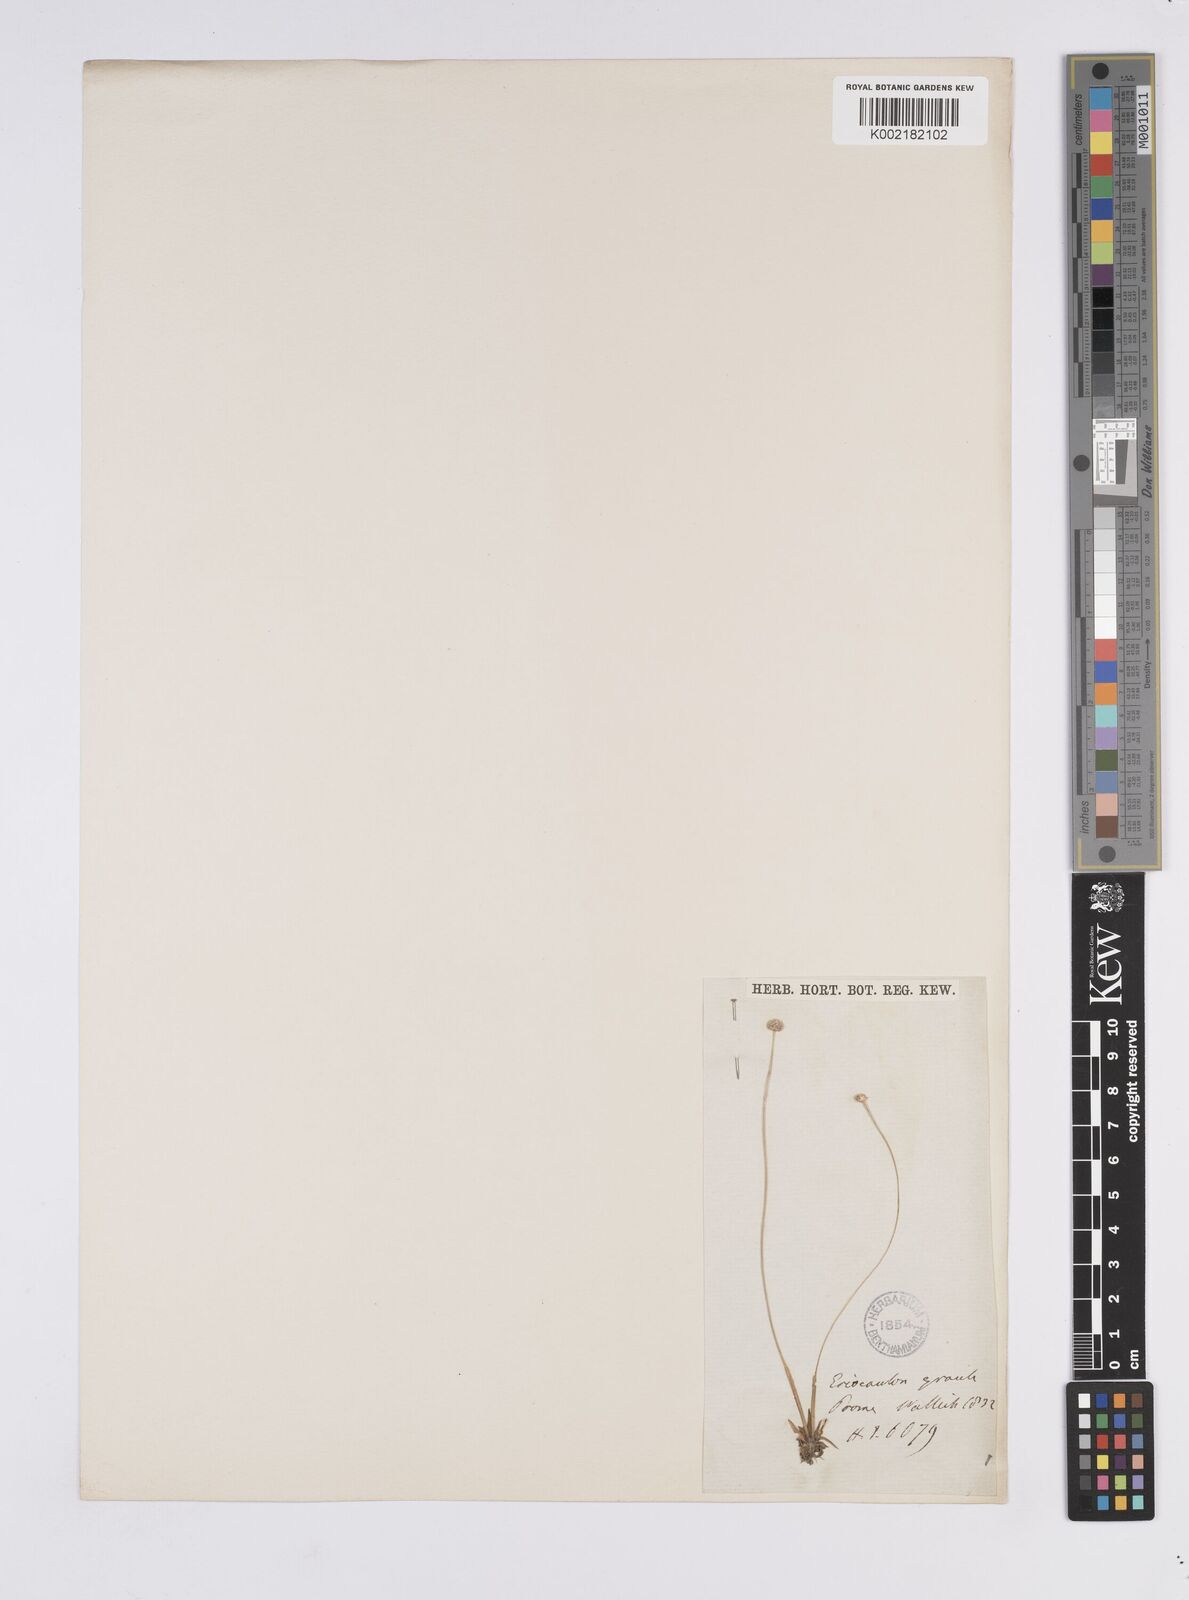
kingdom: Plantae
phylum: Tracheophyta
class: Liliopsida
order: Poales
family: Eriocaulaceae
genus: Eriocaulon
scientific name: Eriocaulon infirmum
